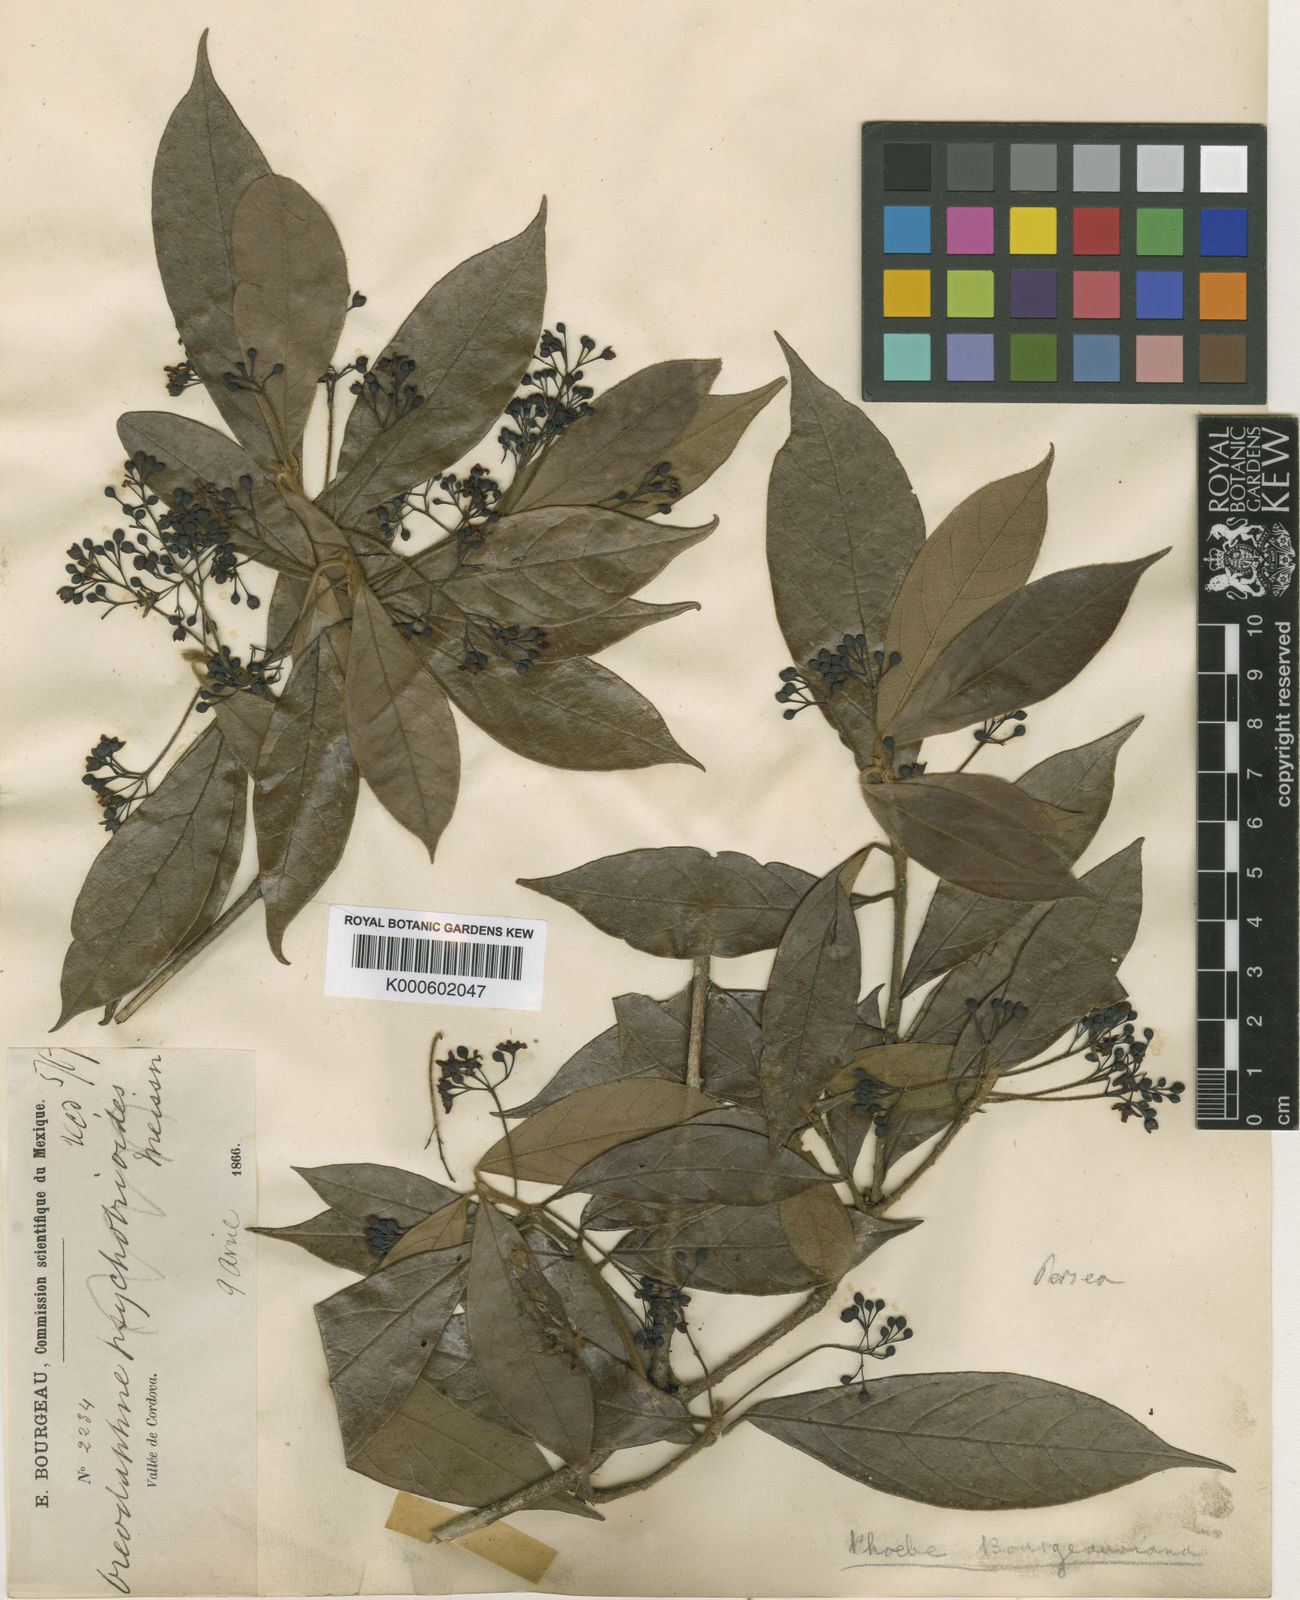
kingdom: Plantae
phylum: Tracheophyta
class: Magnoliopsida
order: Laurales
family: Lauraceae
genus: Ocotea
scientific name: Ocotea bourgeauviana
